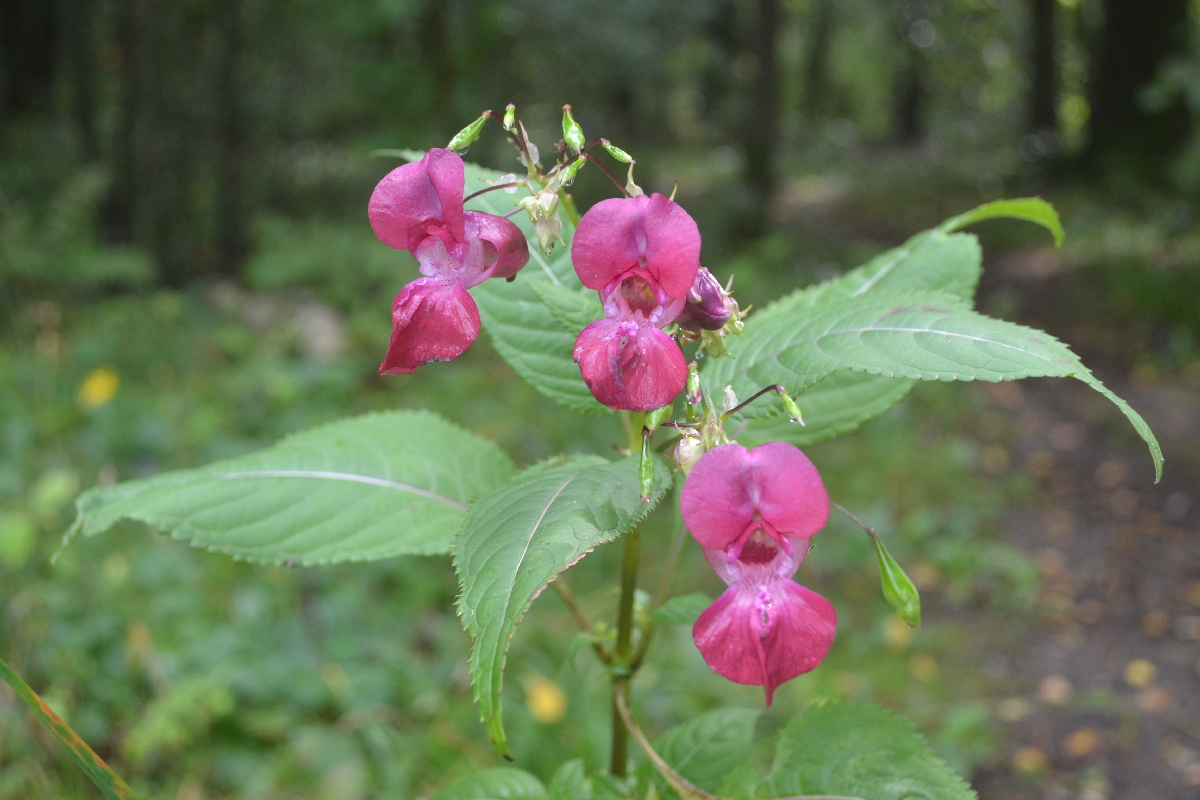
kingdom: Plantae
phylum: Tracheophyta
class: Magnoliopsida
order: Ericales
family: Balsaminaceae
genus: Impatiens
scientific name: Impatiens glandulifera
